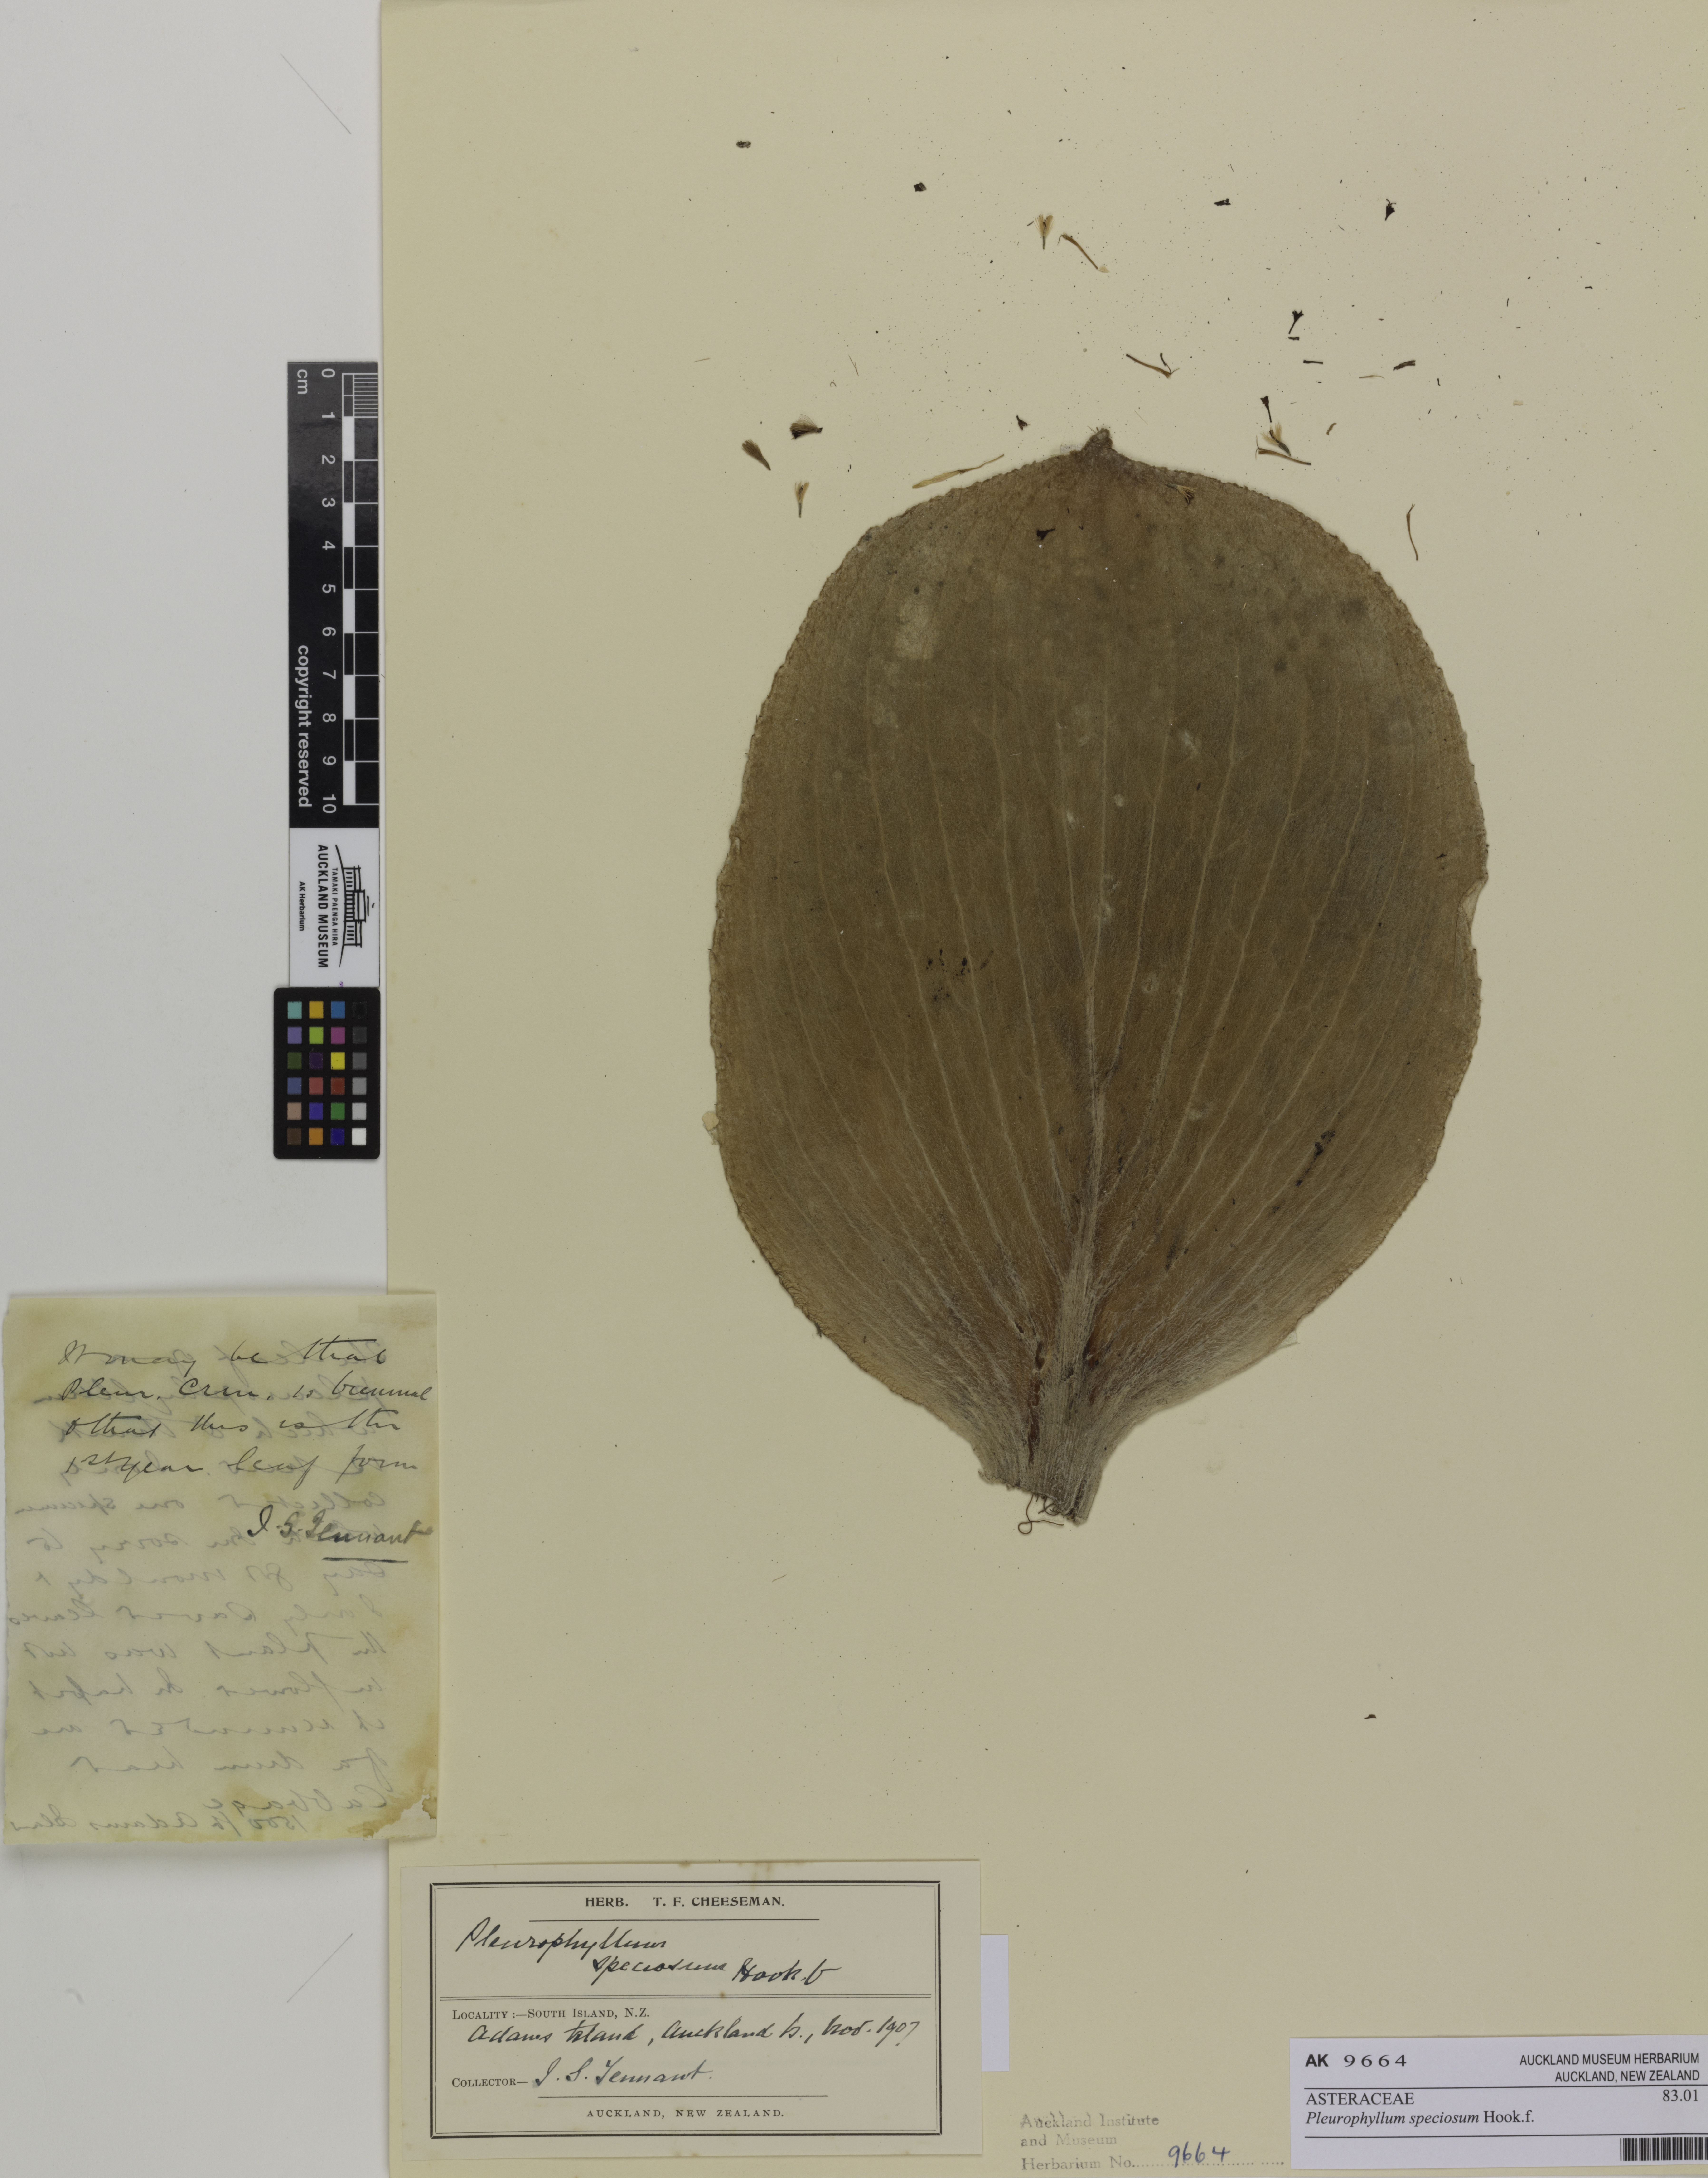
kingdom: Plantae
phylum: Tracheophyta
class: Magnoliopsida
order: Asterales
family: Asteraceae
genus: Pleurophyllum
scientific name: Pleurophyllum speciosum
